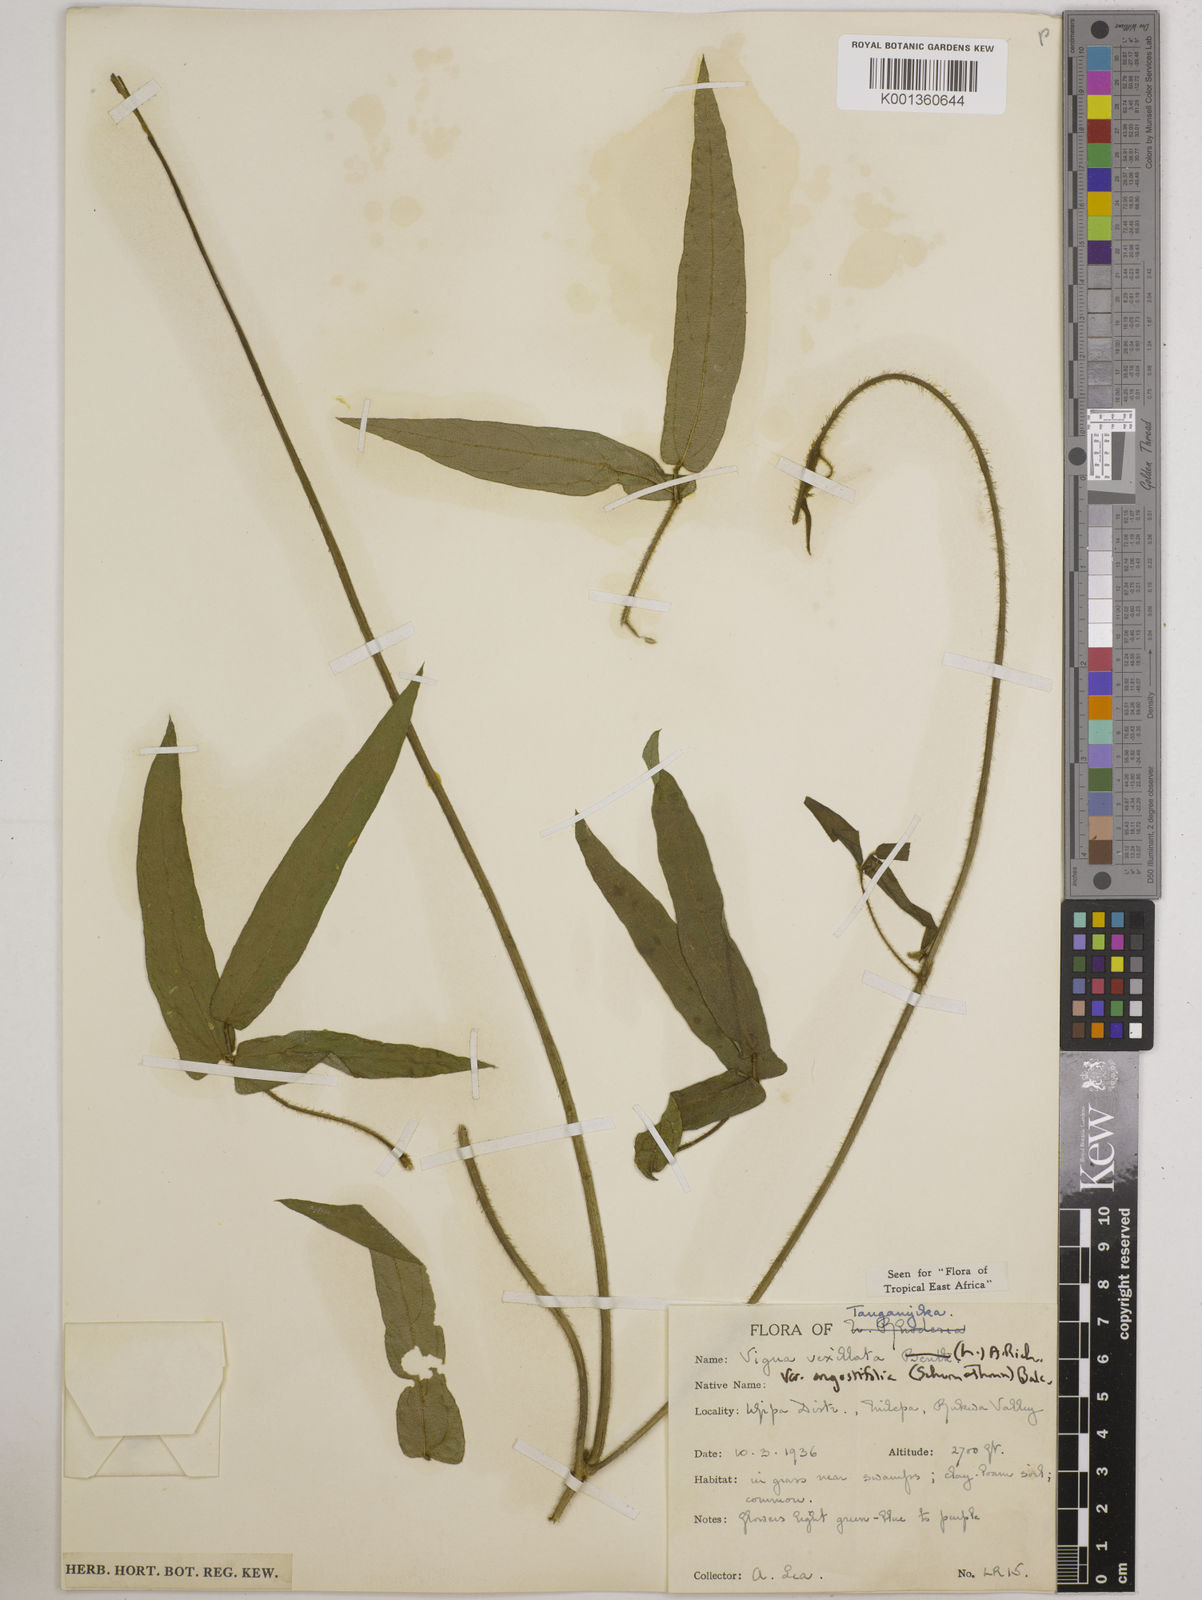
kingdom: Plantae
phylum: Tracheophyta
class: Magnoliopsida
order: Fabales
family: Fabaceae
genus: Vigna
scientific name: Vigna vexillata
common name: Zombi pea
